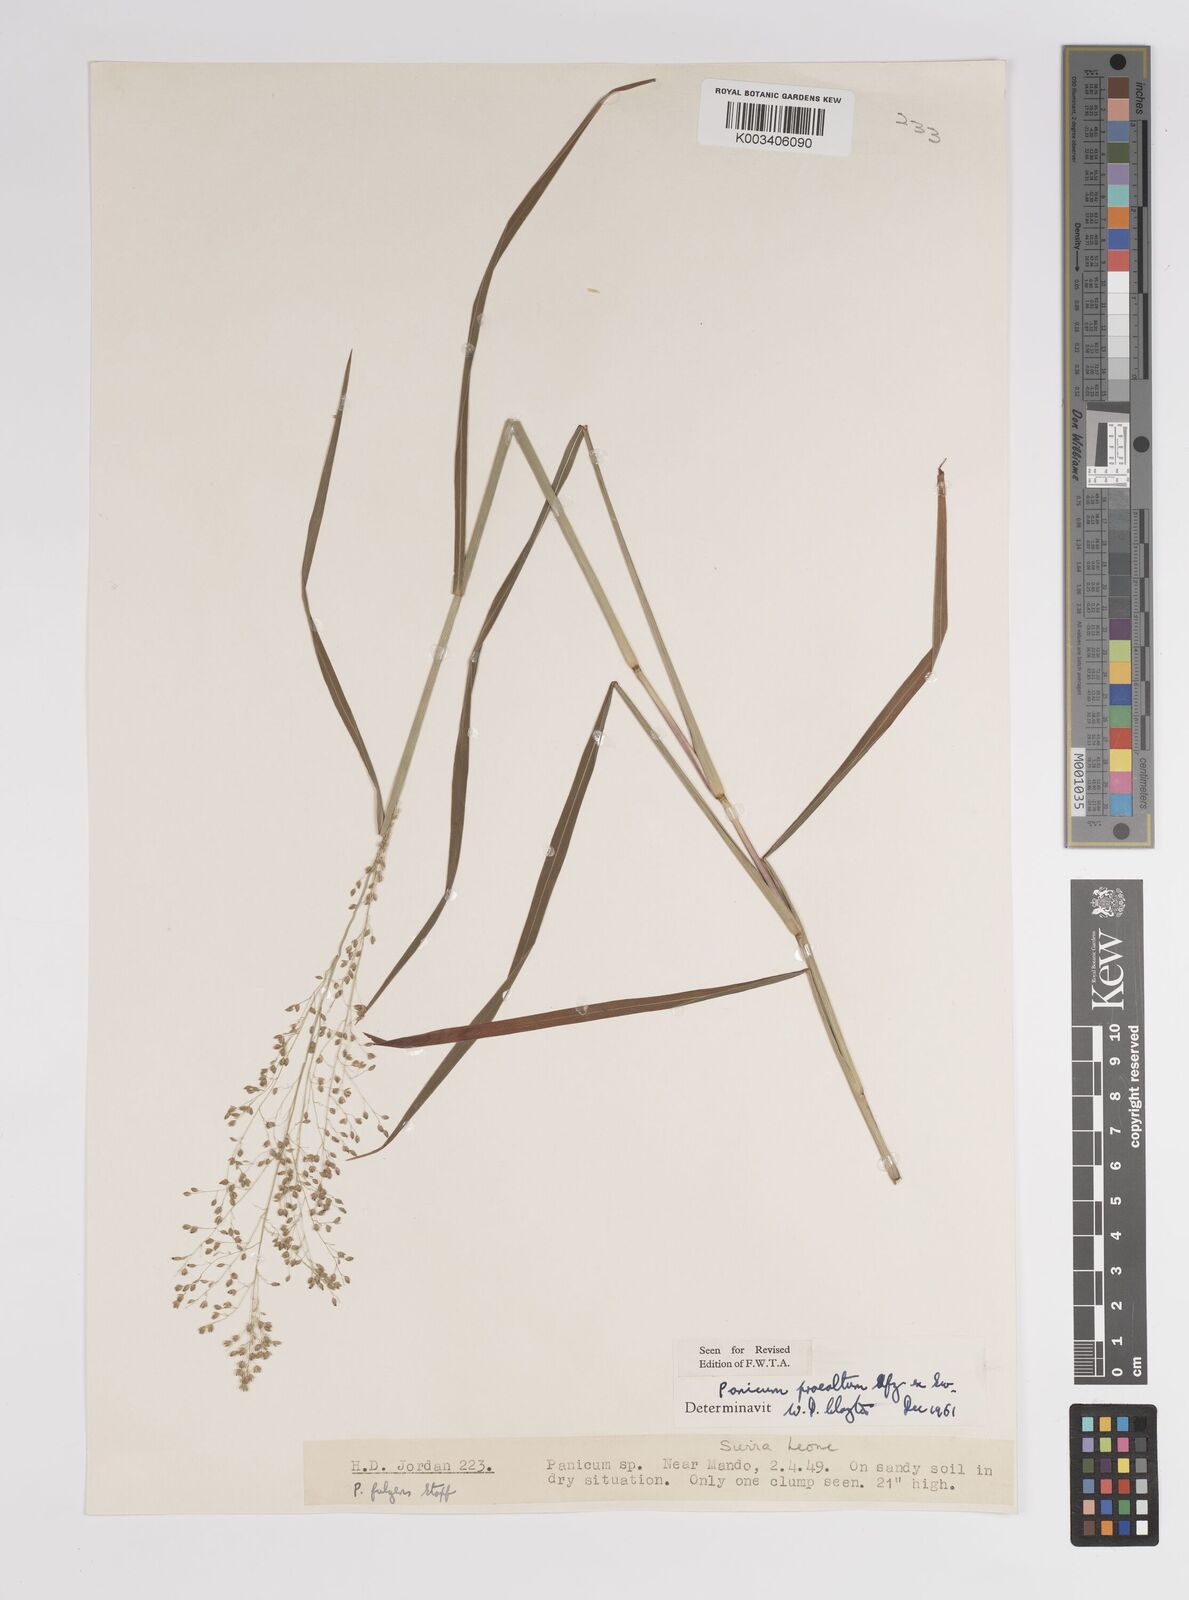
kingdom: Plantae
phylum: Tracheophyta
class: Liliopsida
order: Poales
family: Poaceae
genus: Trichanthecium
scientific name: Trichanthecium praealtum
